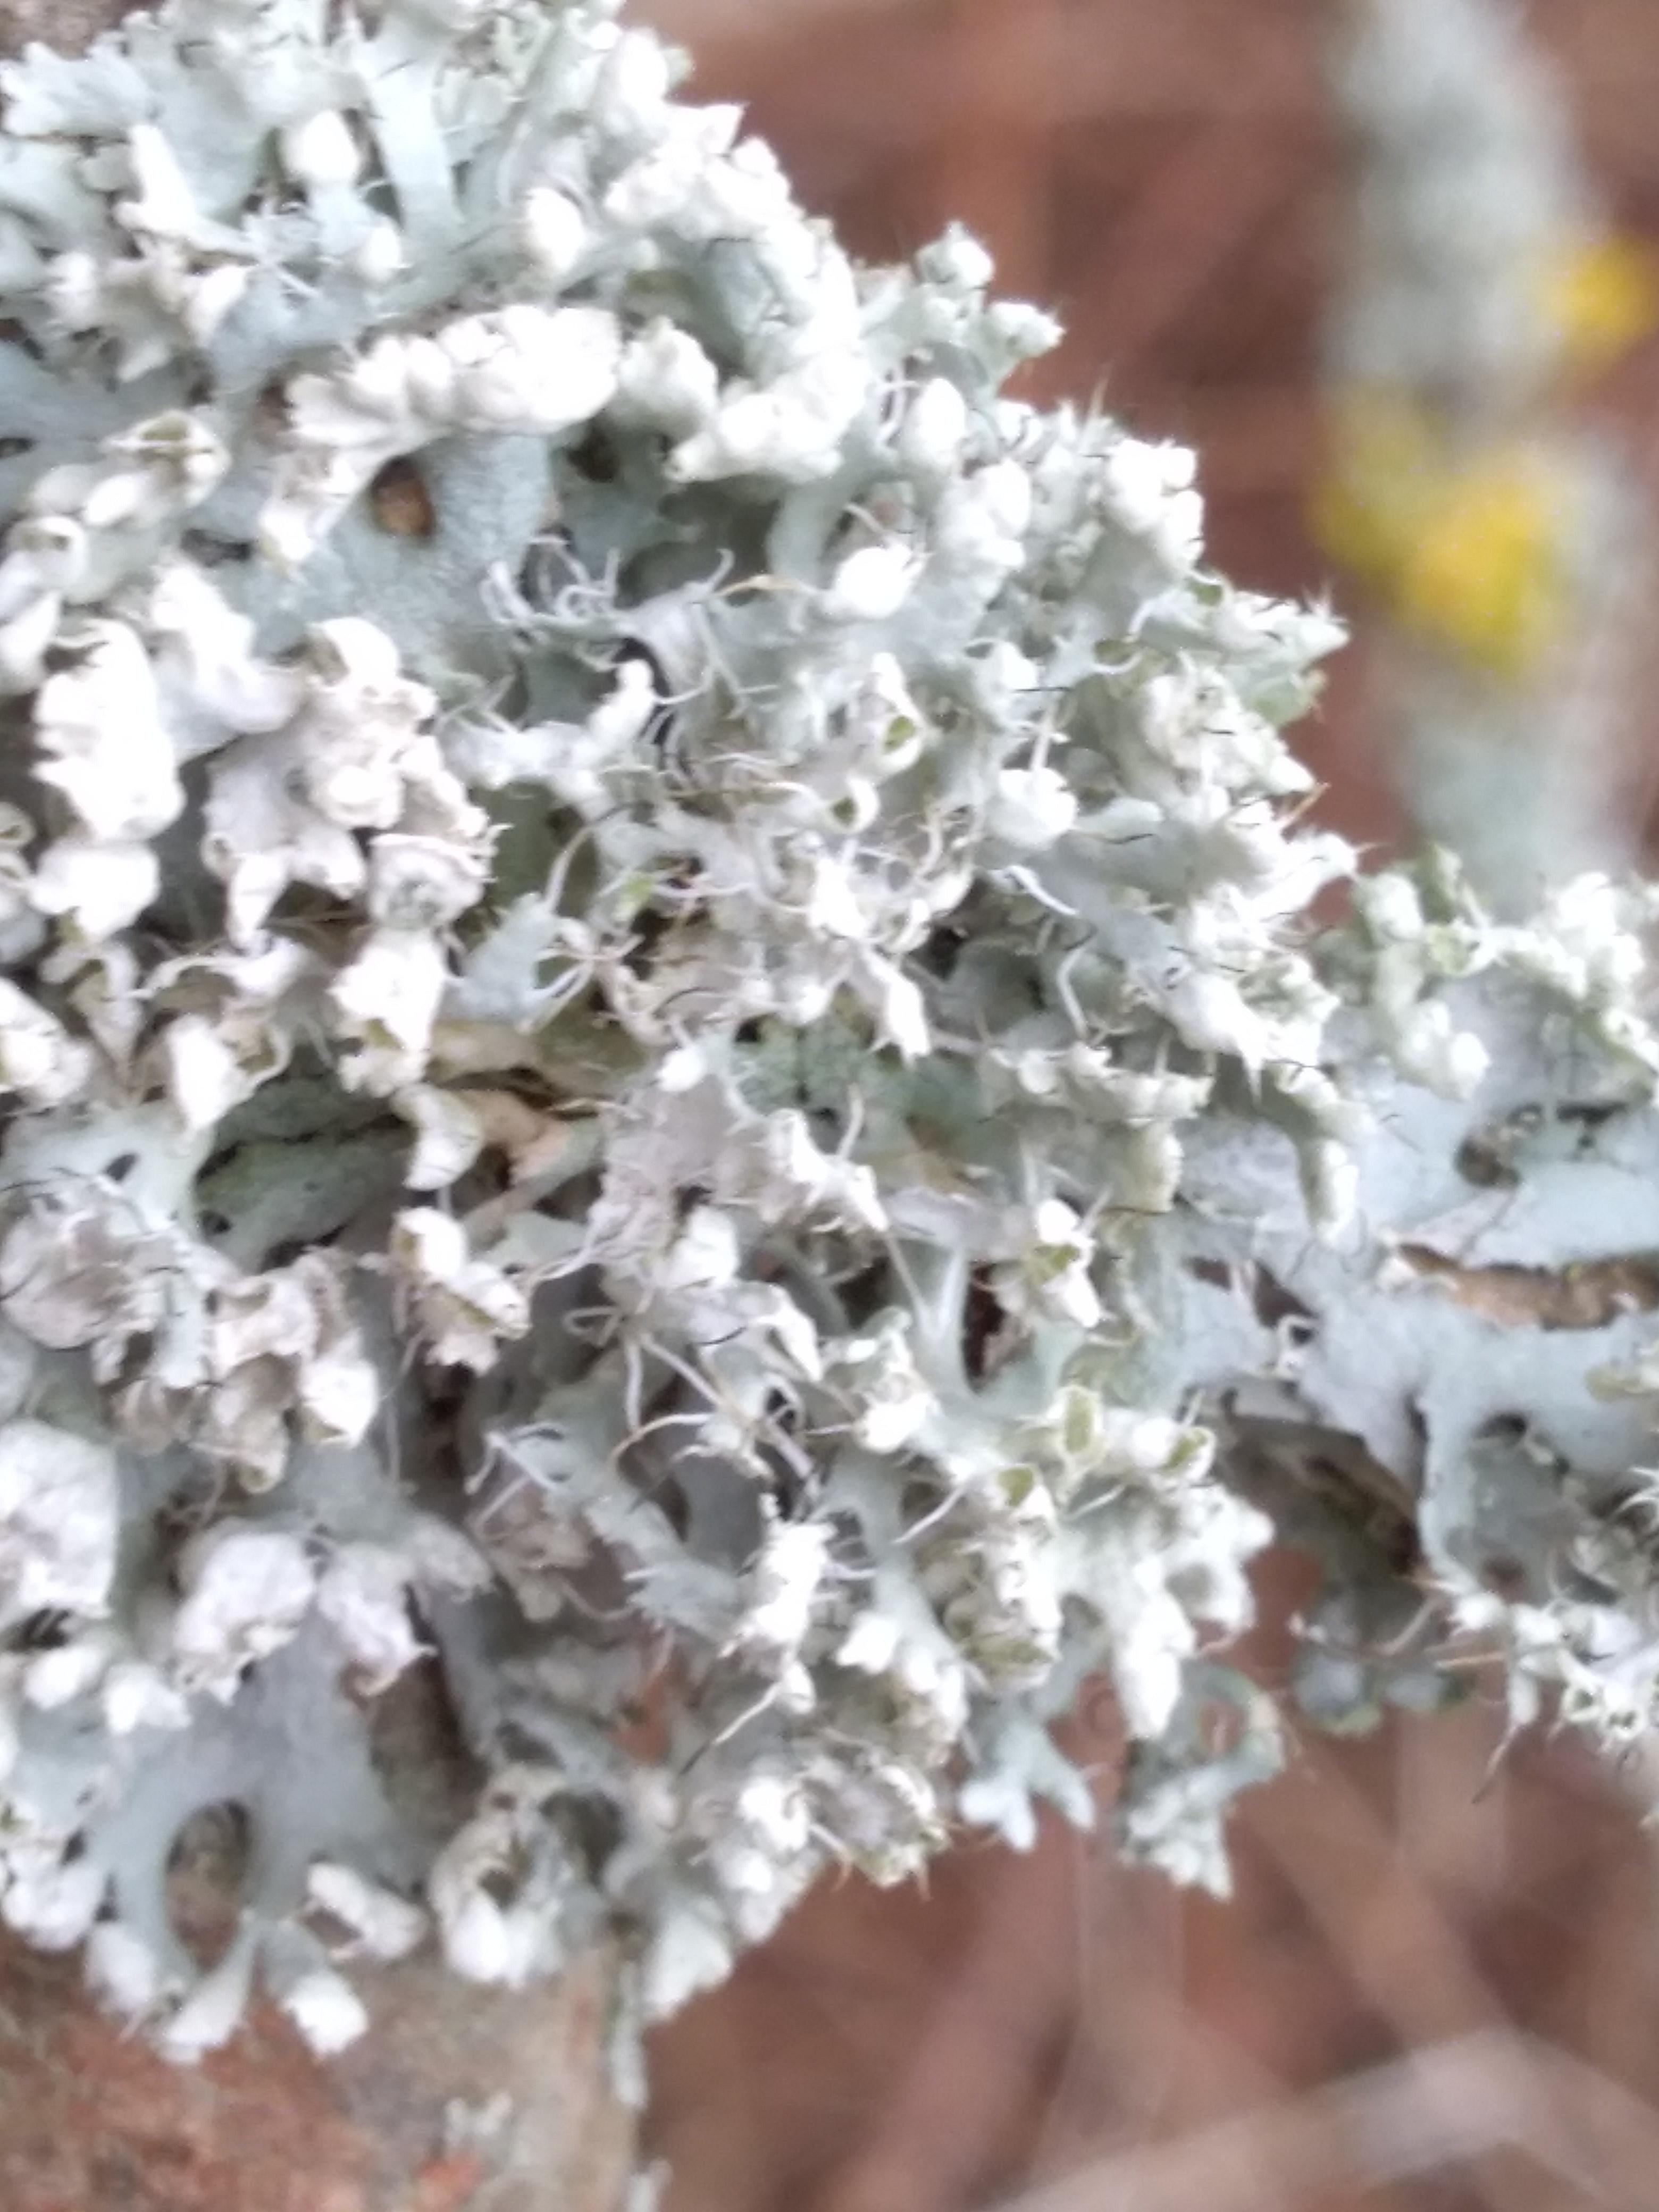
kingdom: Fungi
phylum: Ascomycota
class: Lecanoromycetes
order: Caliciales
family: Physciaceae
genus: Physcia
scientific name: Physcia adscendens
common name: hætte-rosetlav
